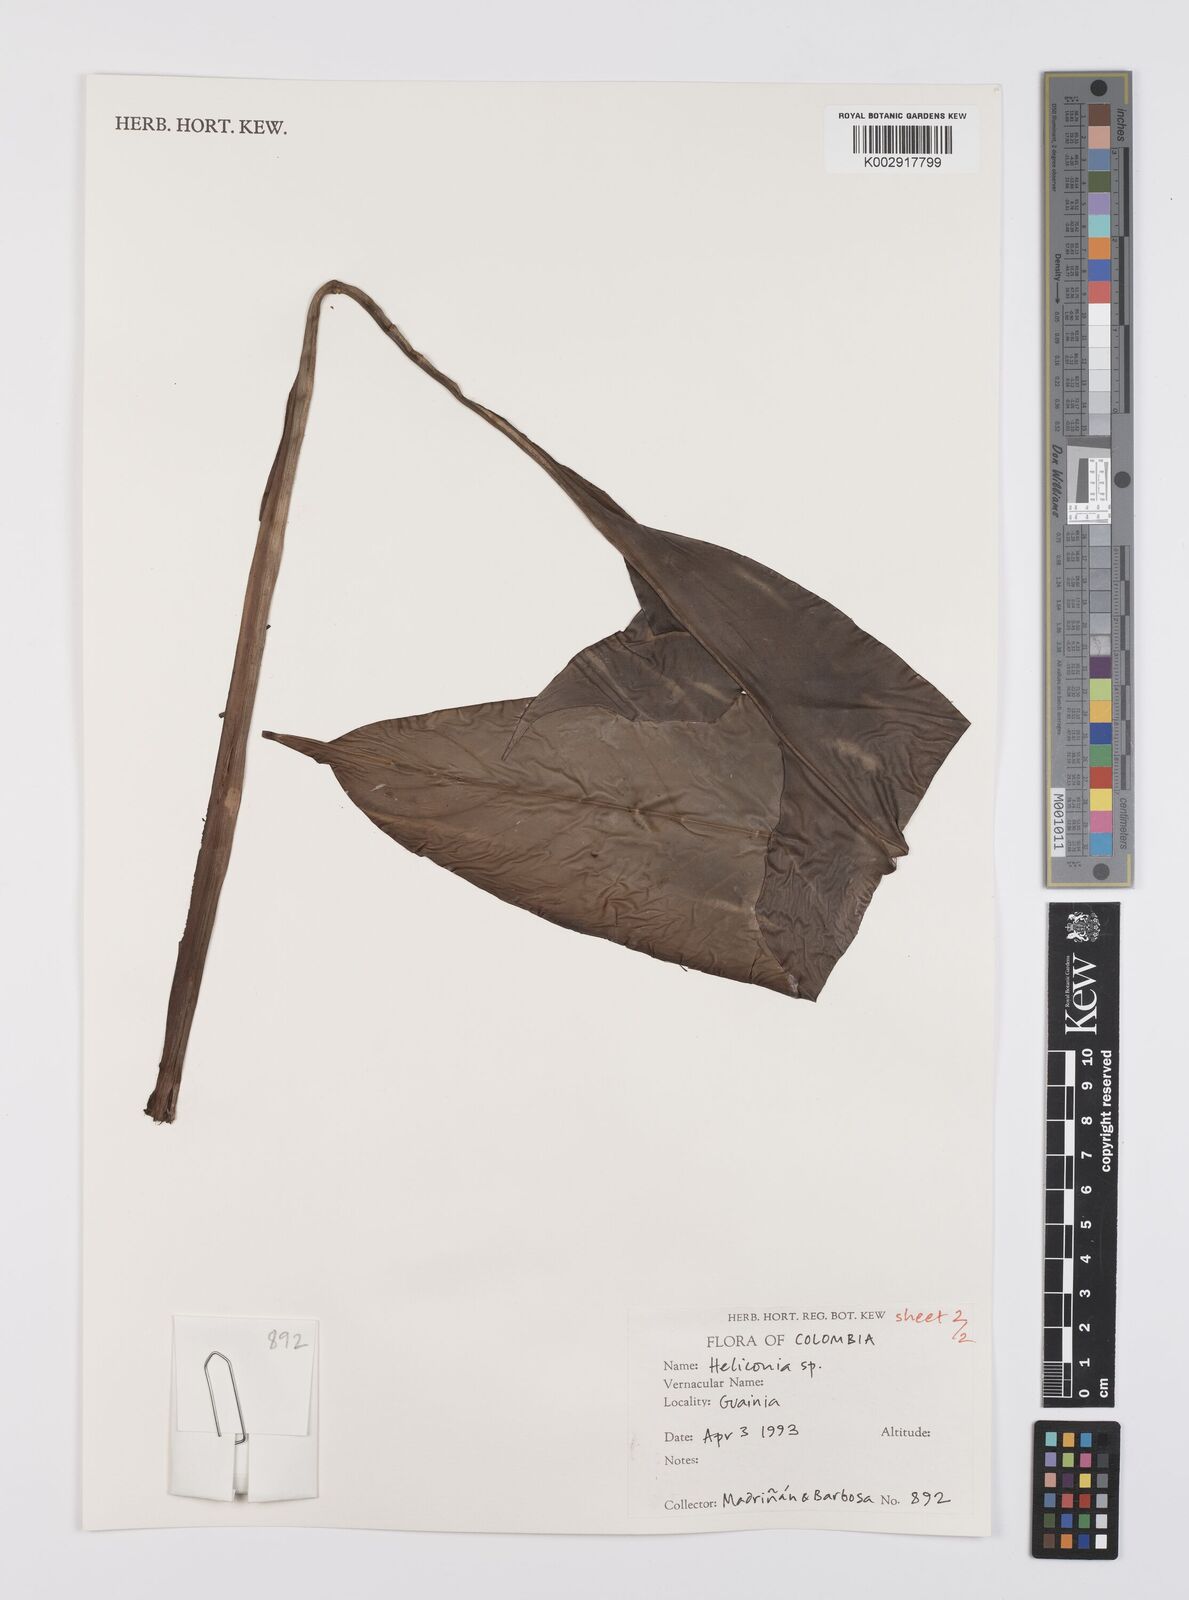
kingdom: Plantae
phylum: Tracheophyta
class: Liliopsida
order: Zingiberales
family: Heliconiaceae
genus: Heliconia
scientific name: Heliconia
